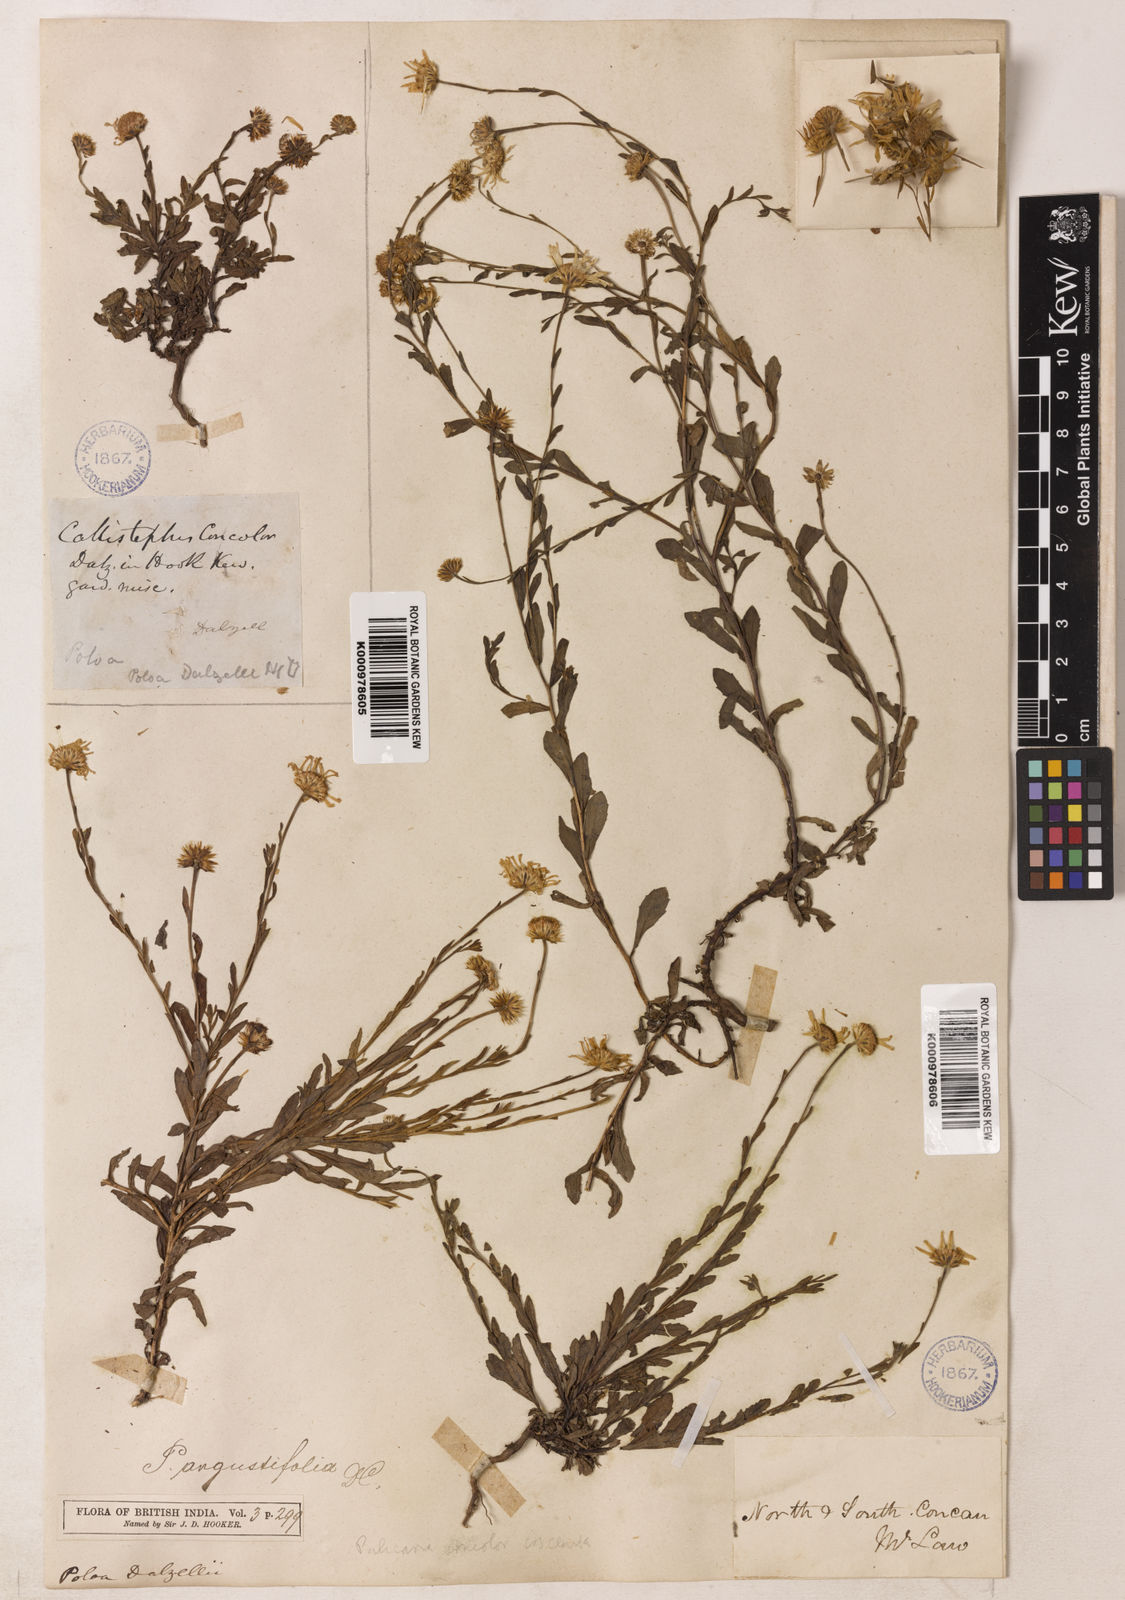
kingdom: Plantae
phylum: Tracheophyta
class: Magnoliopsida
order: Asterales
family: Asteraceae
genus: Pulicaria
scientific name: Pulicaria angustifolia
